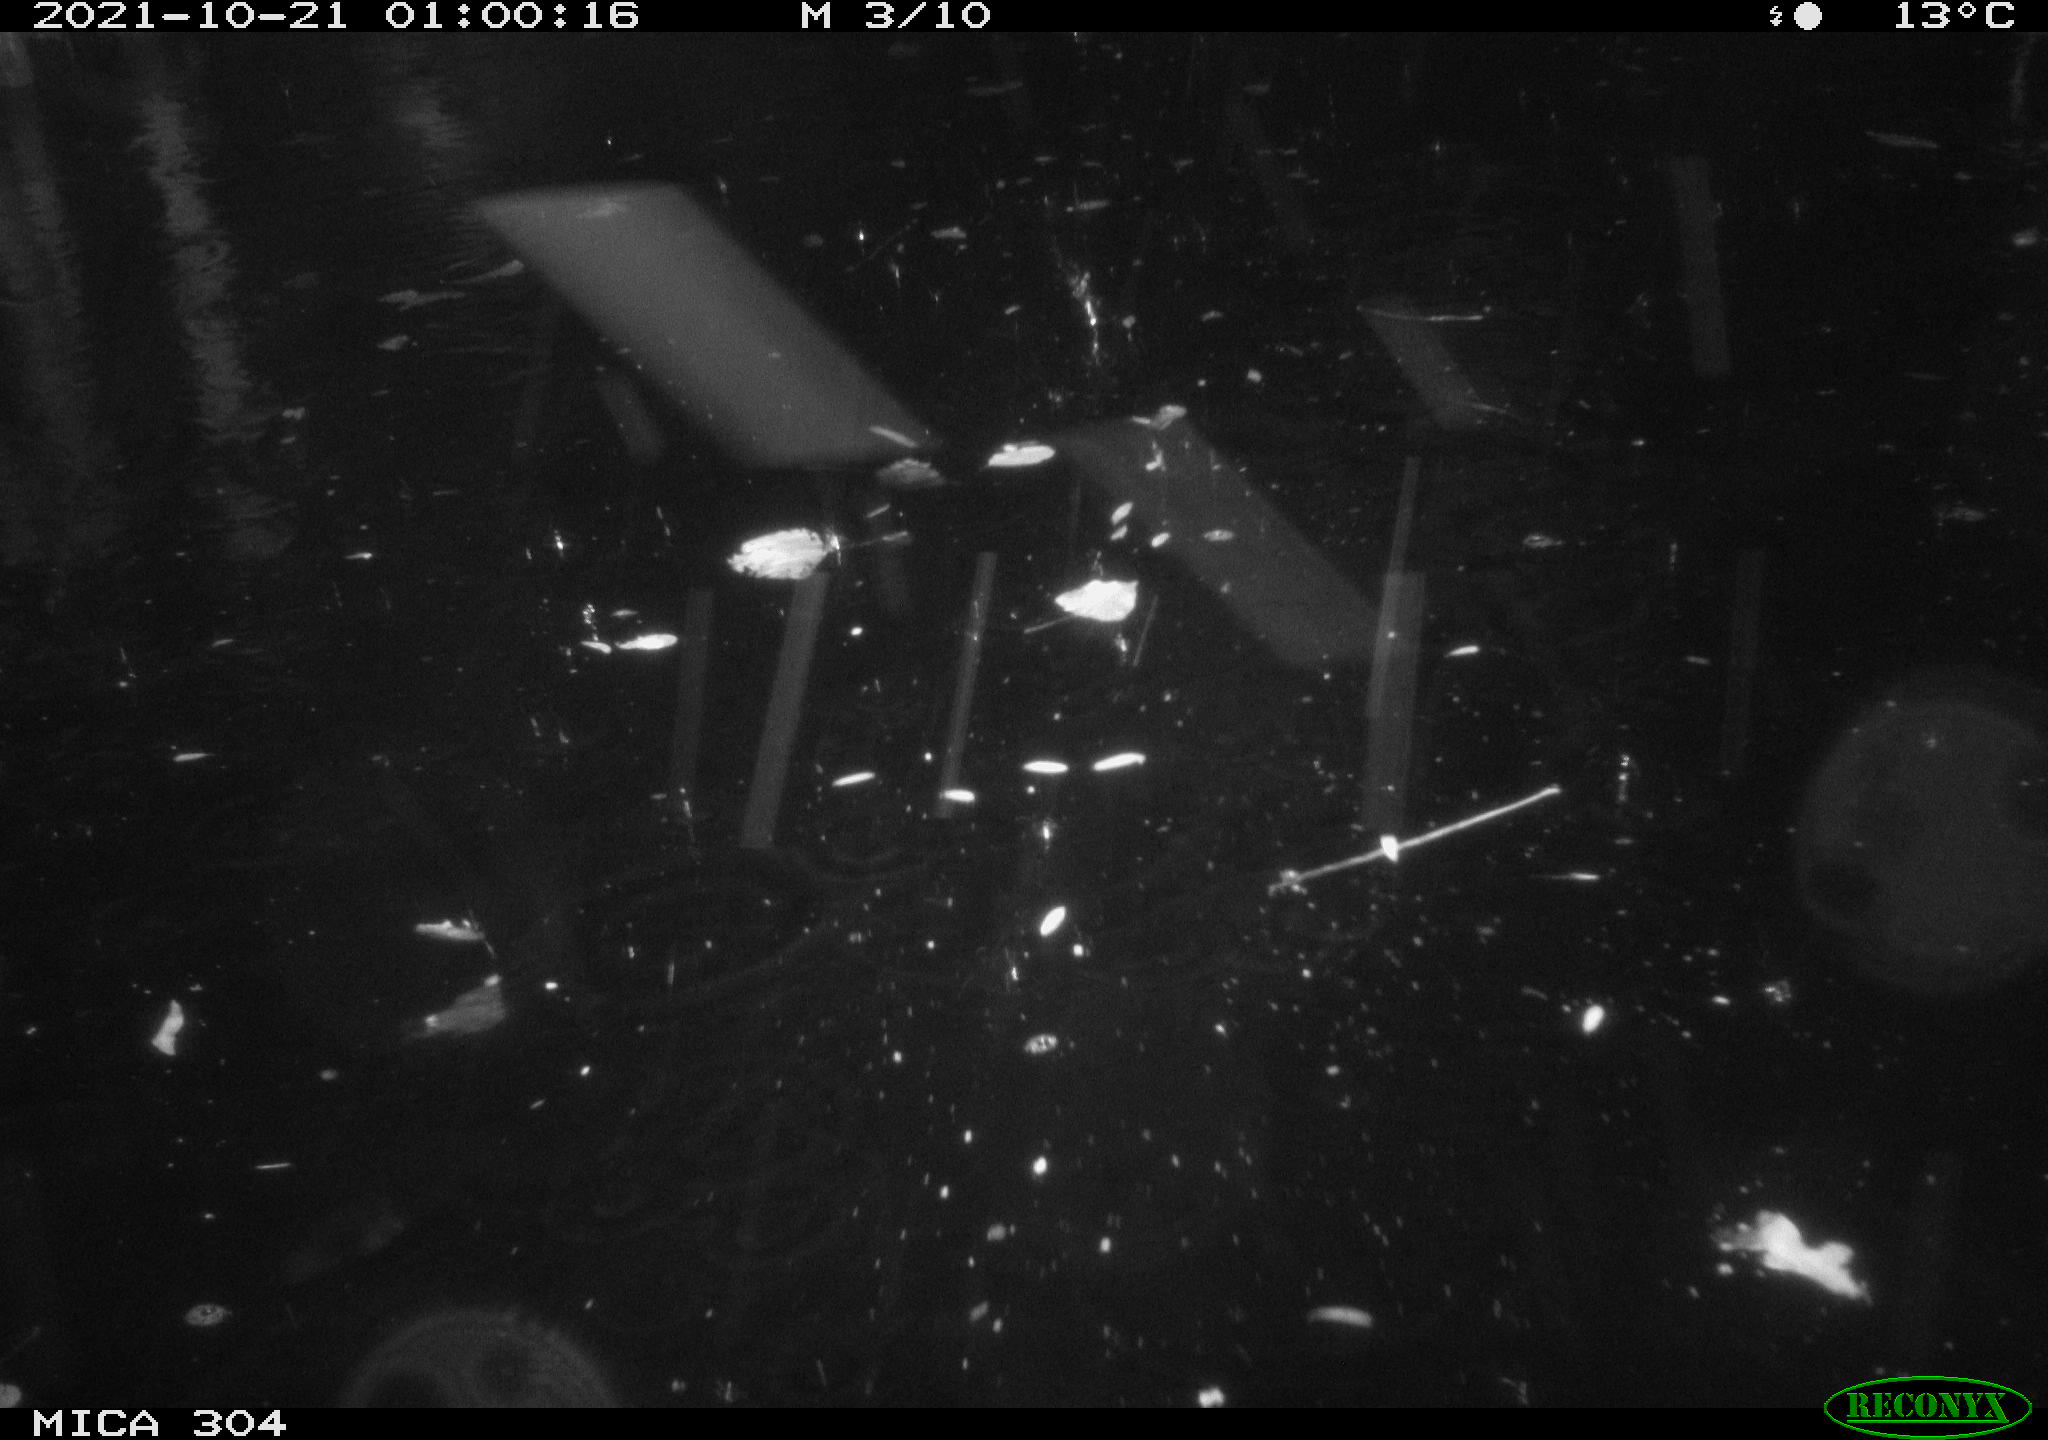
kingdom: Animalia
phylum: Chordata
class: Mammalia
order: Rodentia
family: Muridae
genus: Rattus
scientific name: Rattus norvegicus
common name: Brown rat
